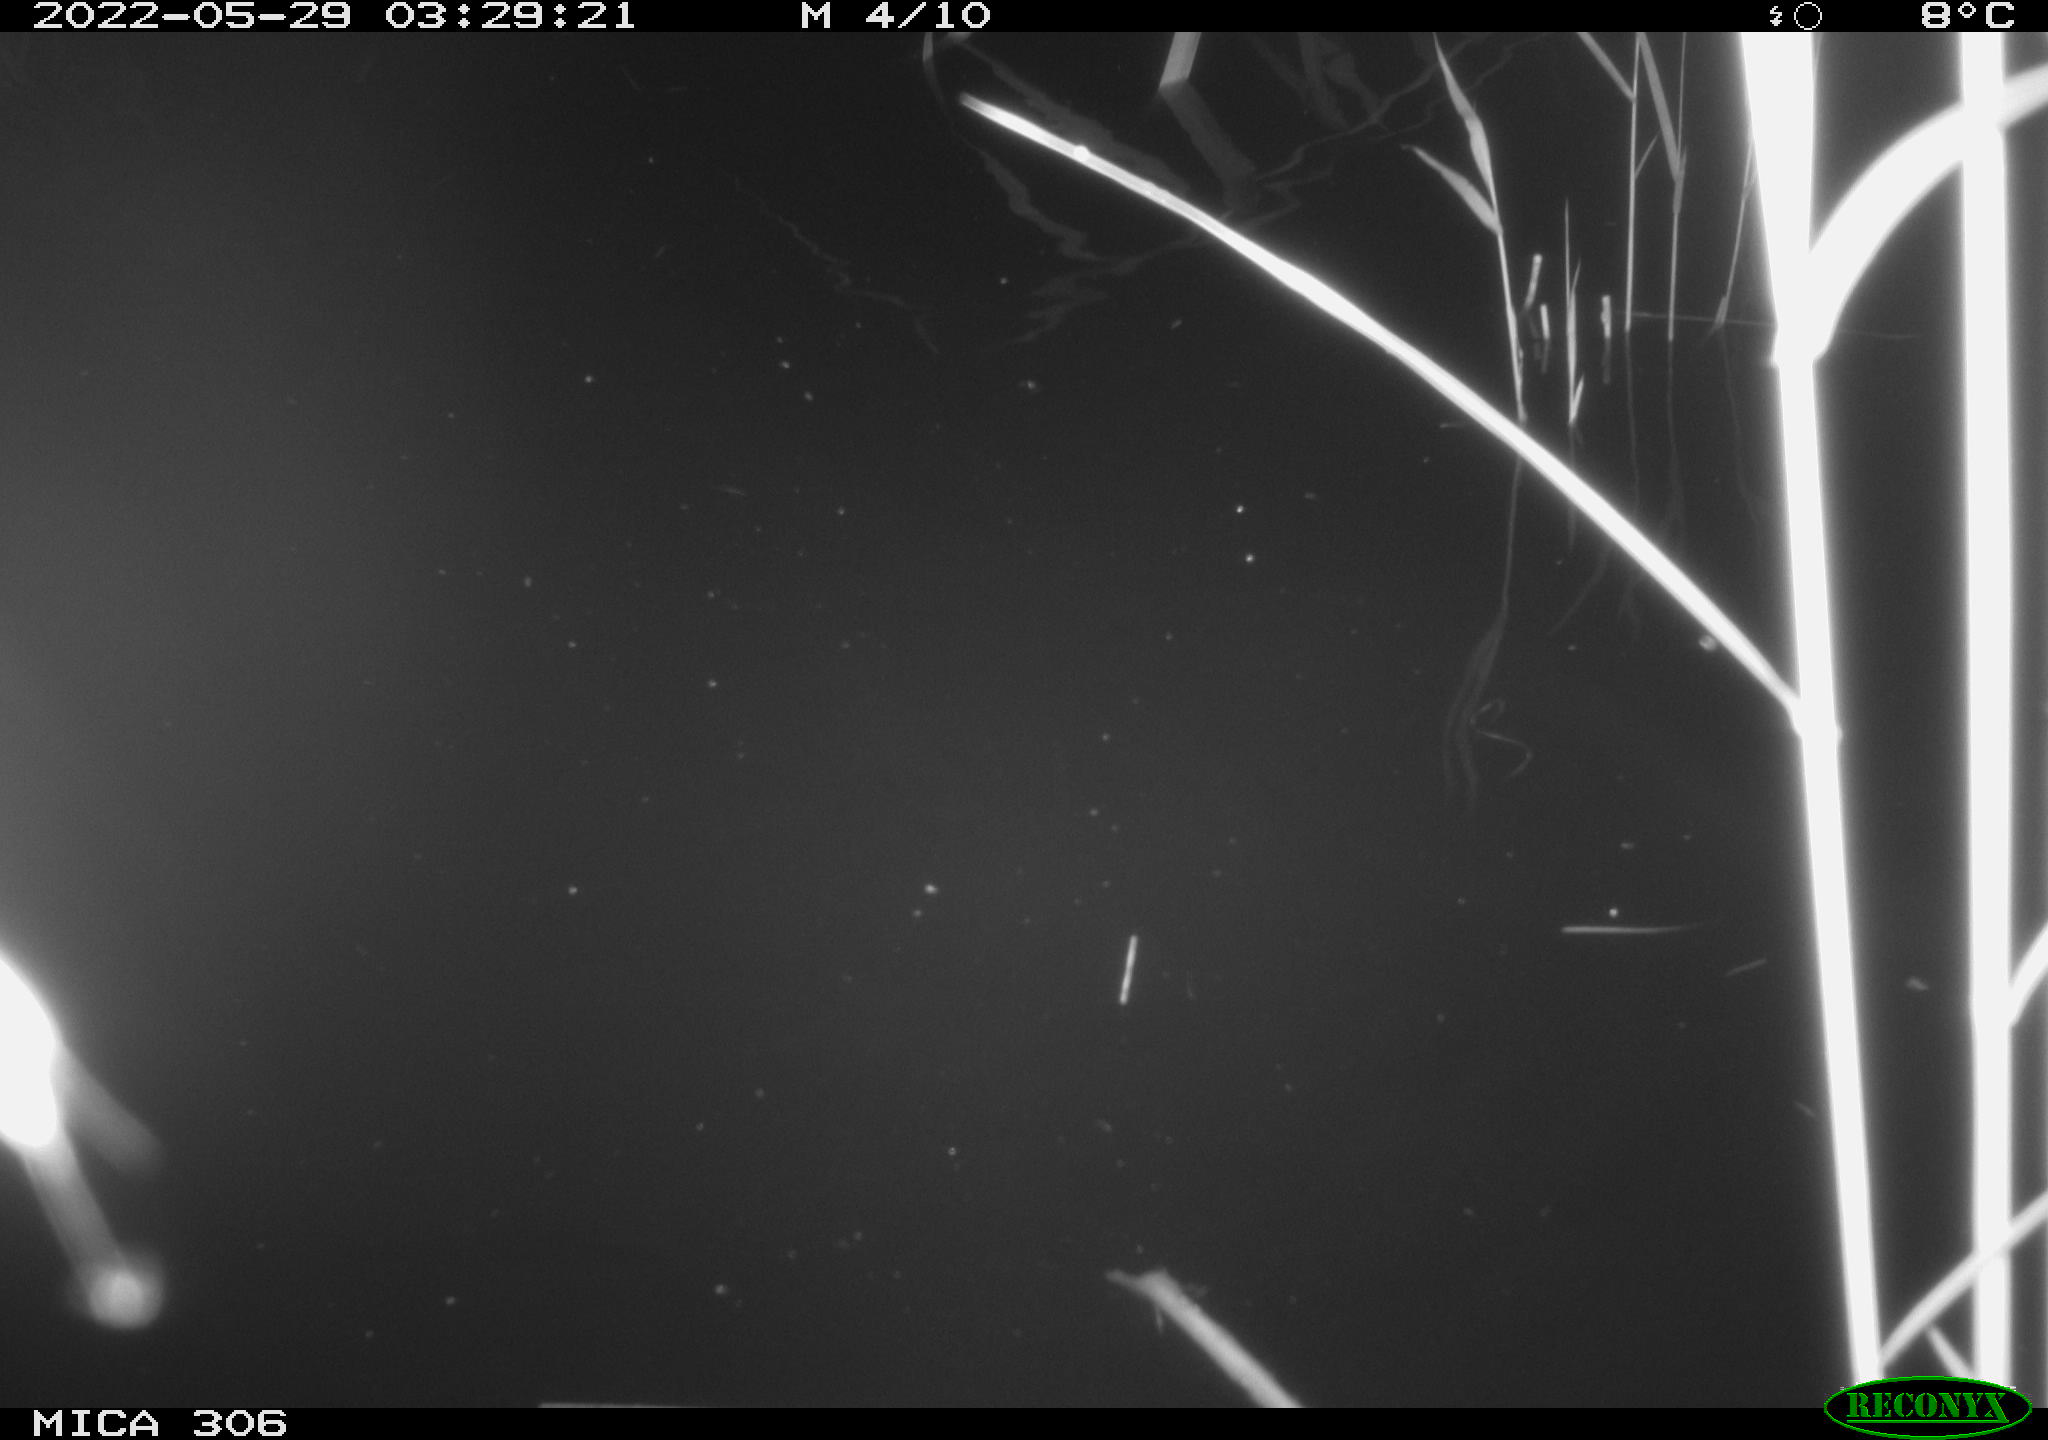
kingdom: Animalia
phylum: Chordata
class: Mammalia
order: Rodentia
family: Cricetidae
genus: Ondatra
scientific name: Ondatra zibethicus
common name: Muskrat
